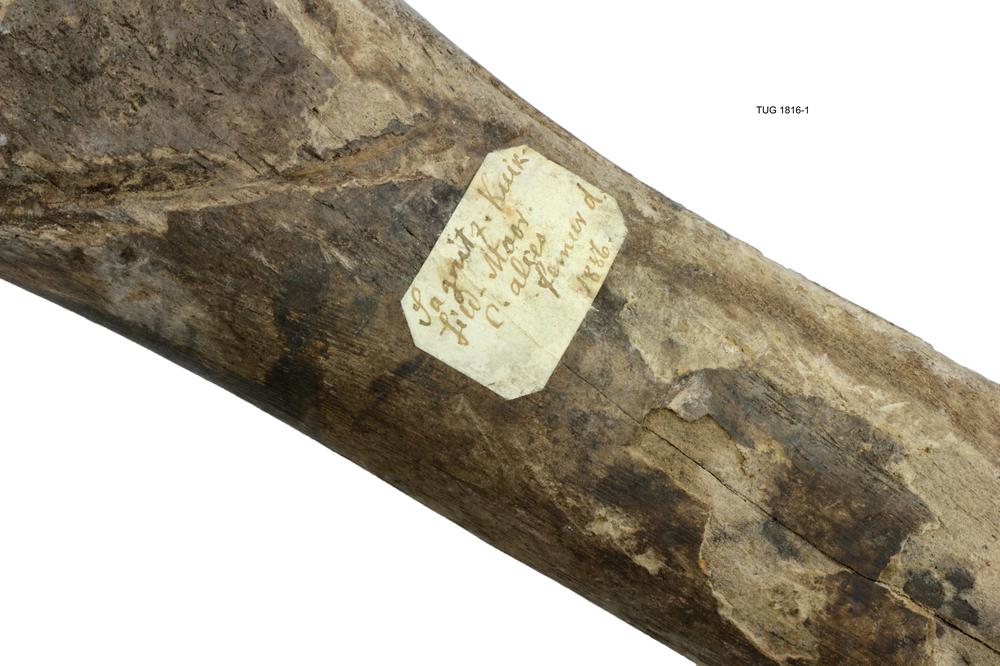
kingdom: Animalia
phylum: Chordata
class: Mammalia
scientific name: Mammalia
